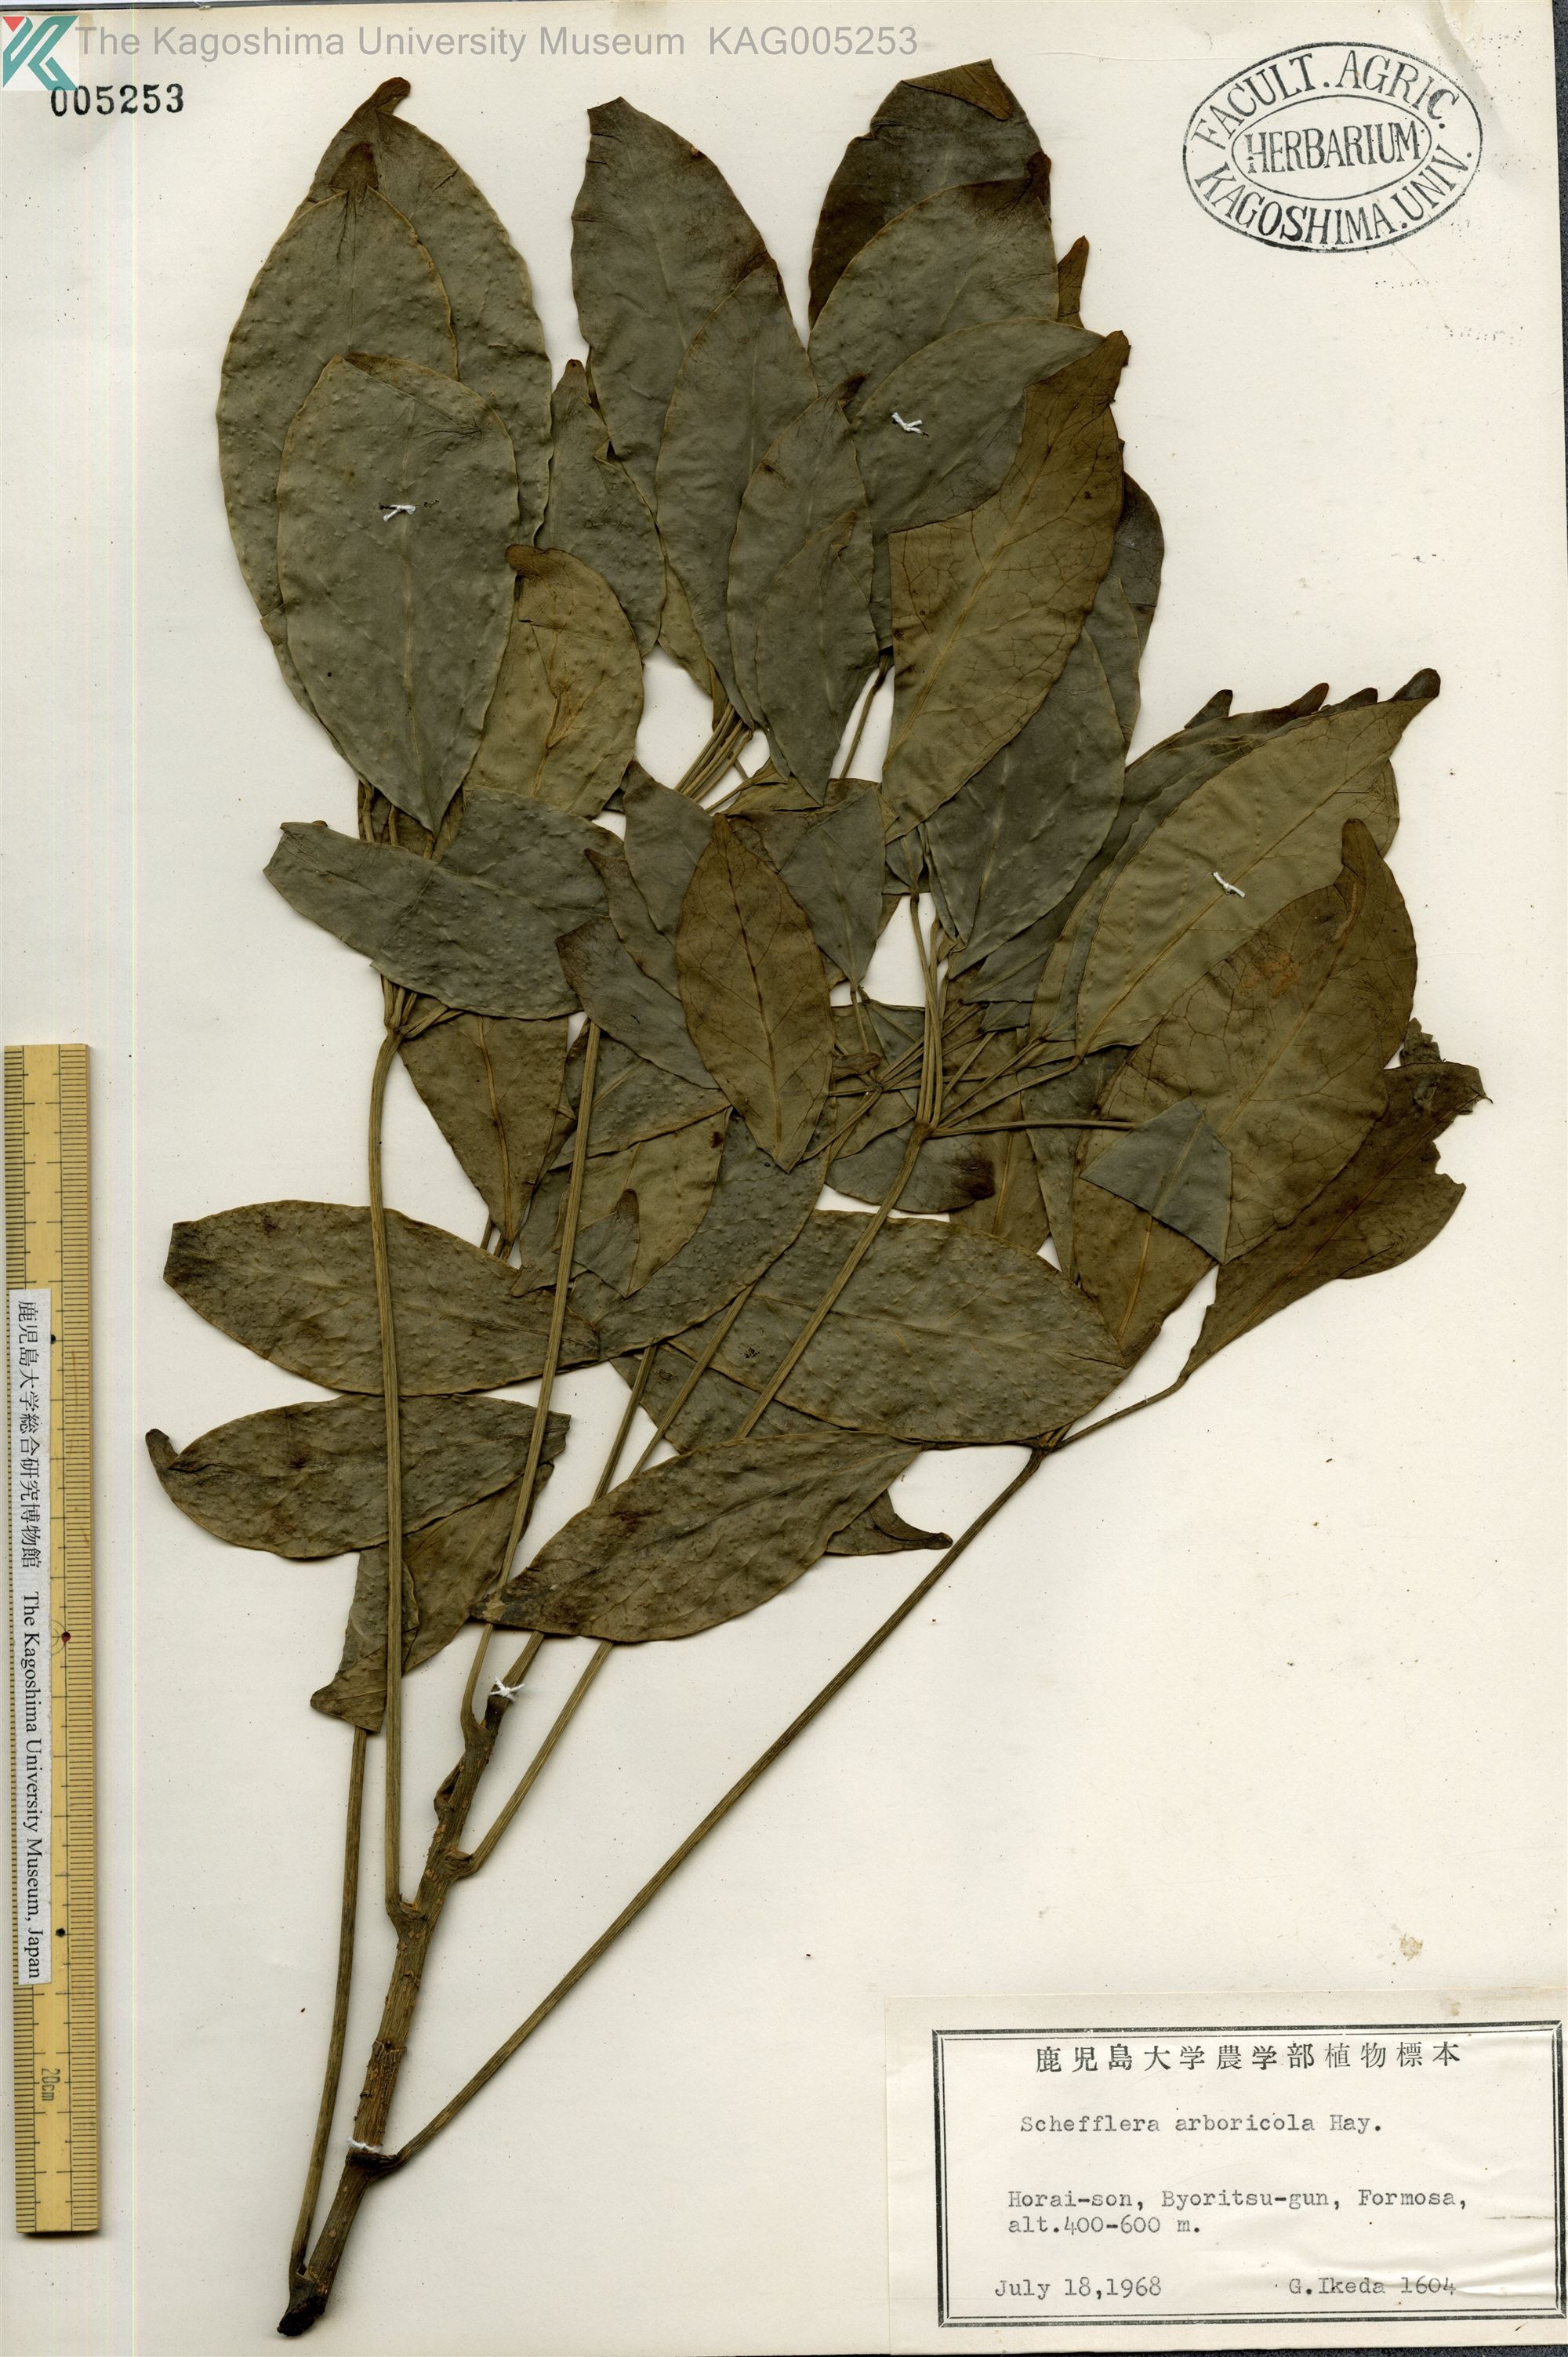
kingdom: Plantae
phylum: Tracheophyta
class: Magnoliopsida
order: Apiales
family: Araliaceae
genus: Heptapleurum
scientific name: Heptapleurum heptaphyllum
